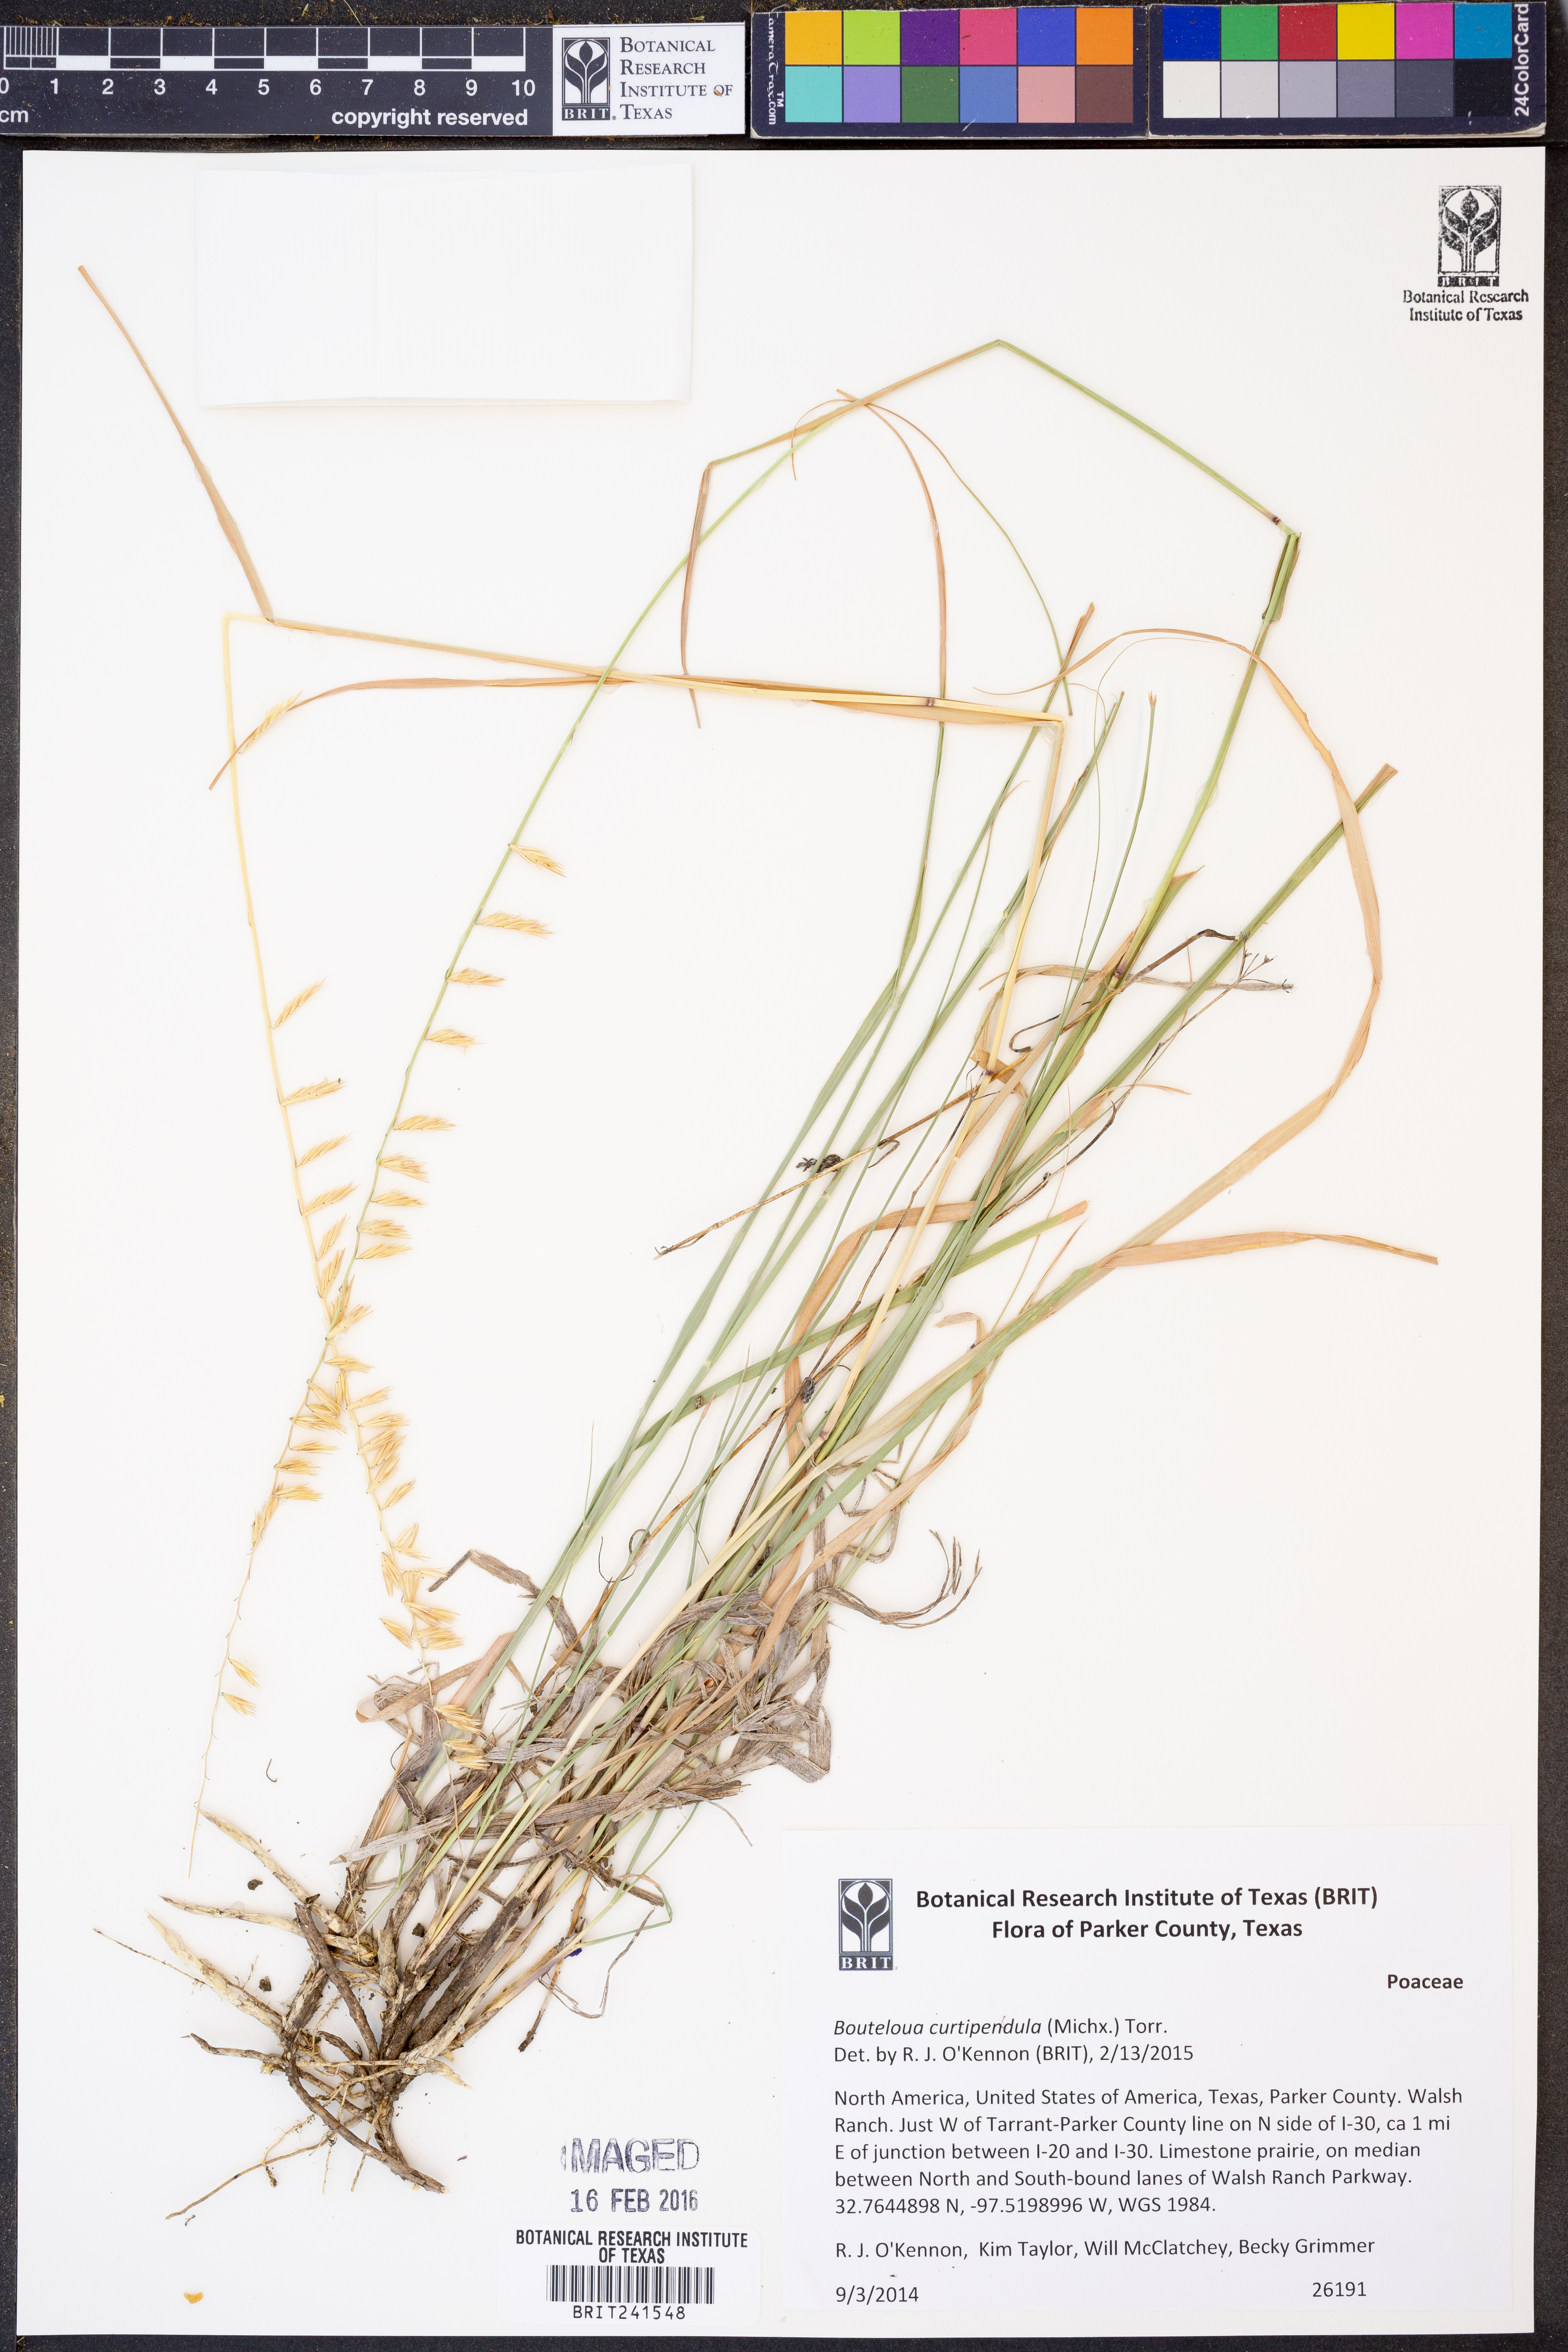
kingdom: Plantae
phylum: Tracheophyta
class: Liliopsida
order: Poales
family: Poaceae
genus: Bouteloua
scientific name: Bouteloua curtipendula
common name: Side-oats grama
